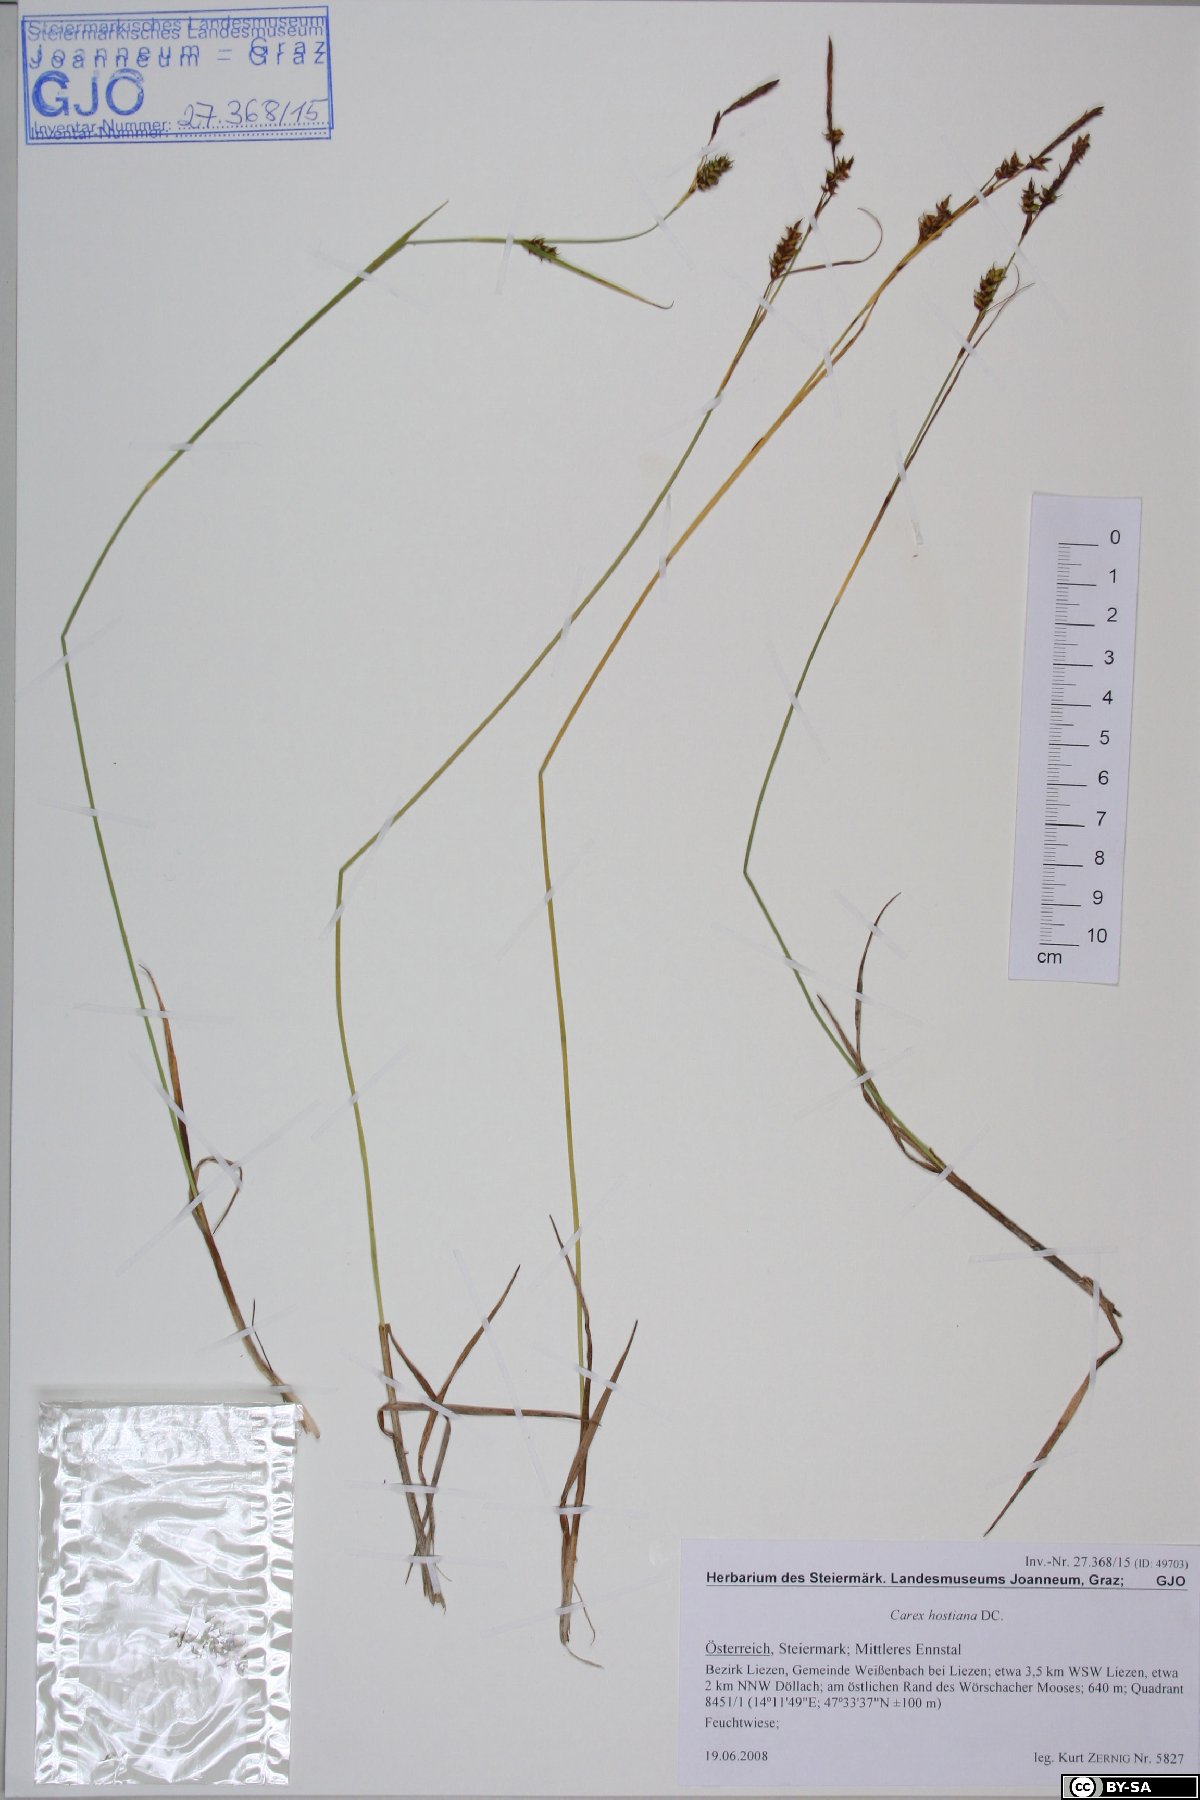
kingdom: Plantae
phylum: Tracheophyta
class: Liliopsida
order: Poales
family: Cyperaceae
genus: Carex
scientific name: Carex hostiana
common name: Tawny sedge
